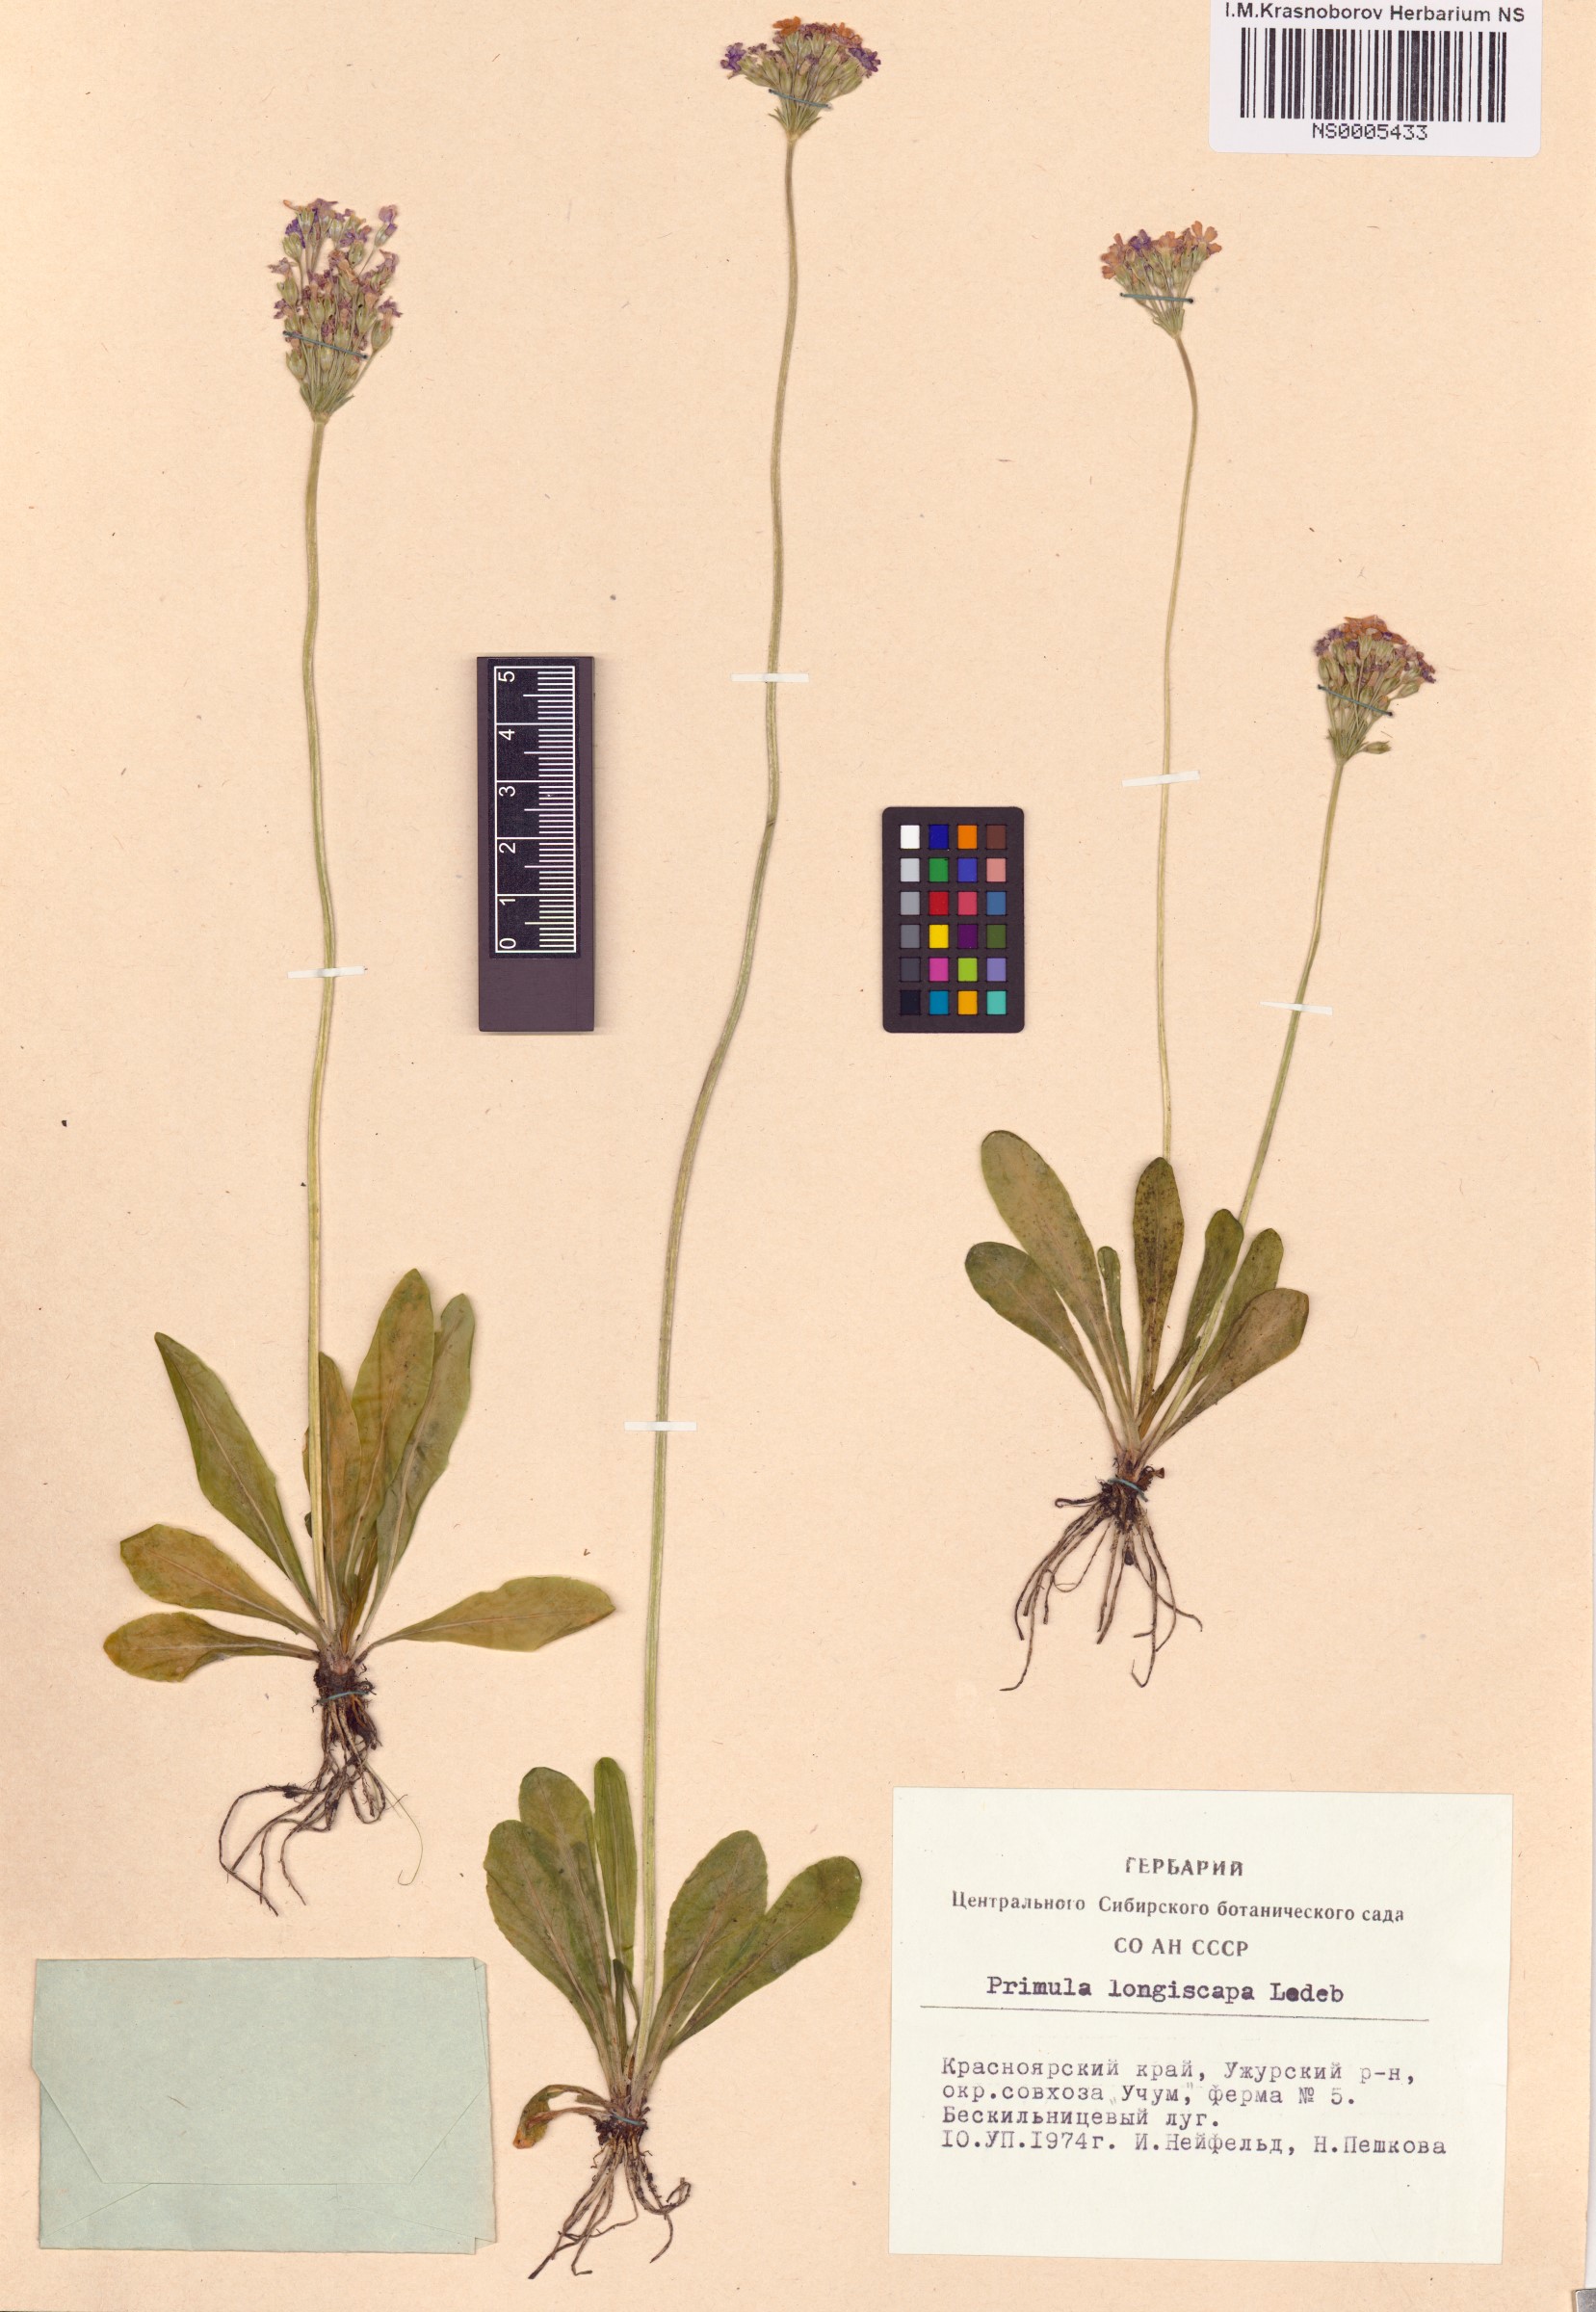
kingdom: Plantae
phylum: Tracheophyta
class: Magnoliopsida
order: Ericales
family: Primulaceae
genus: Primula
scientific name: Primula longiscapa
